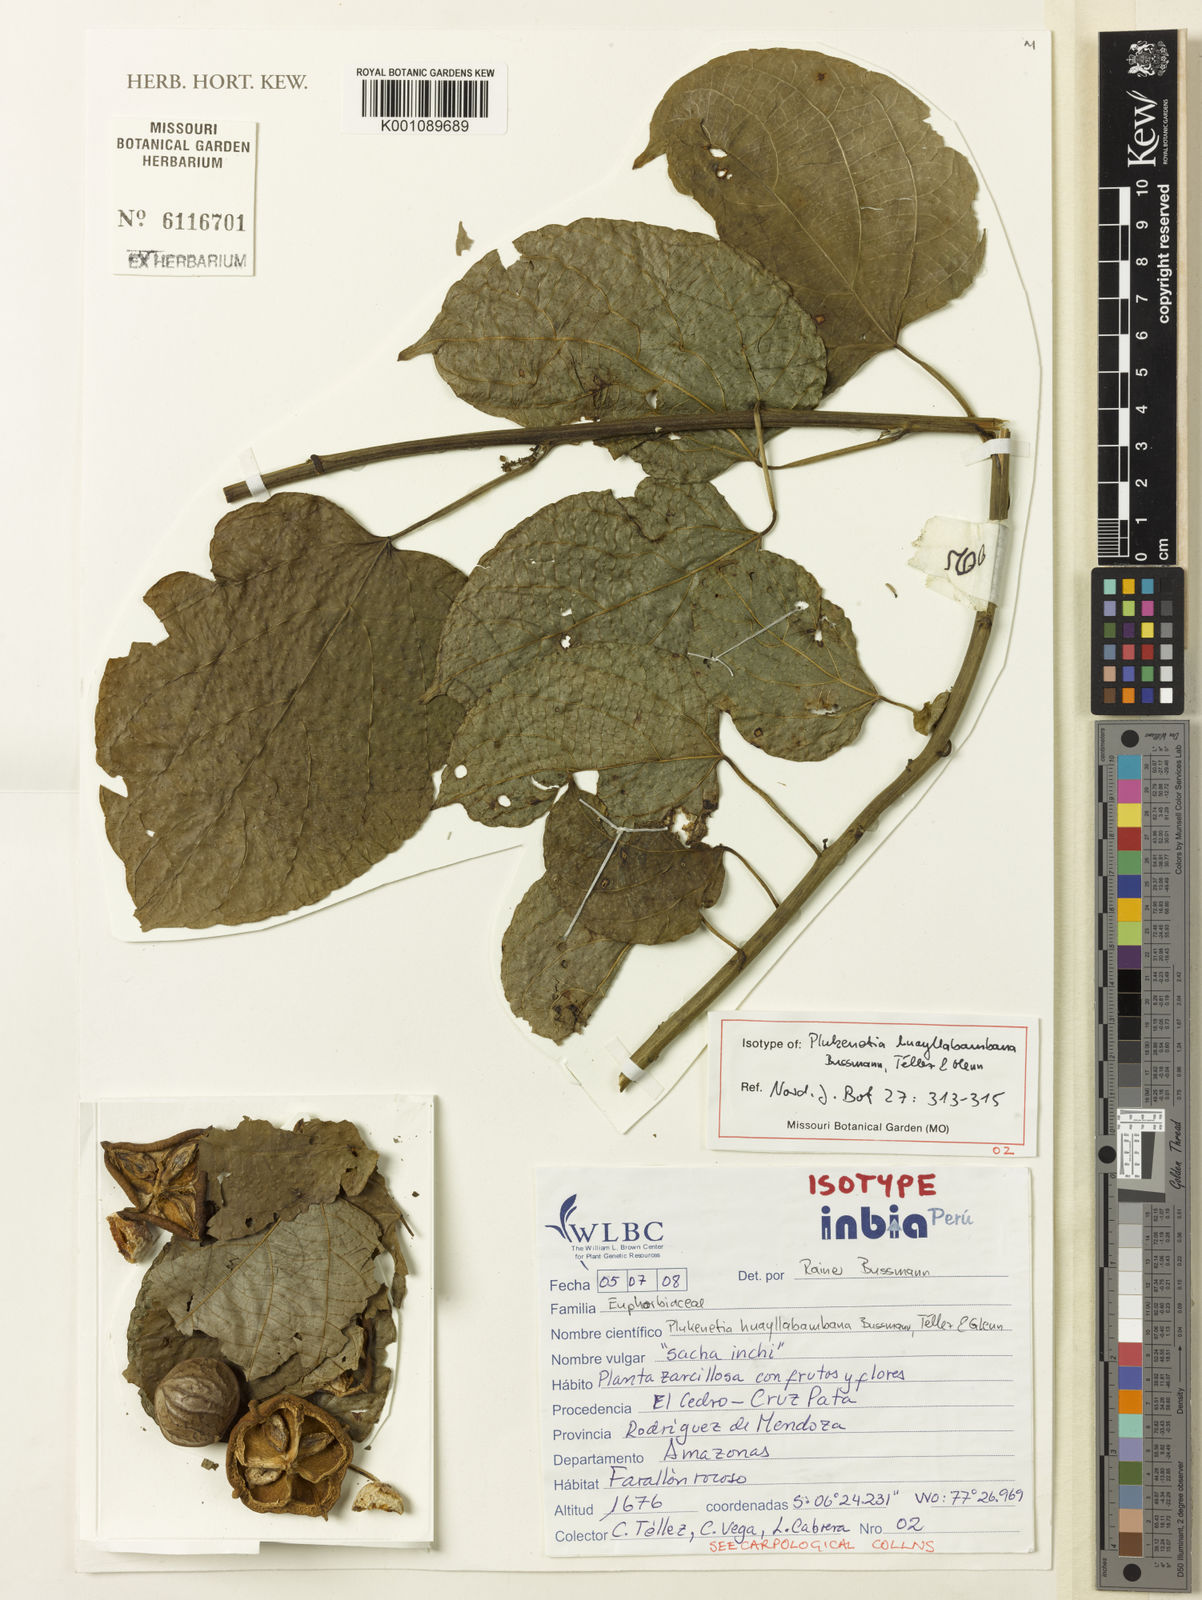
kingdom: Plantae
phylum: Tracheophyta
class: Magnoliopsida
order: Malpighiales
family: Euphorbiaceae
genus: Plukenetia
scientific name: Plukenetia
